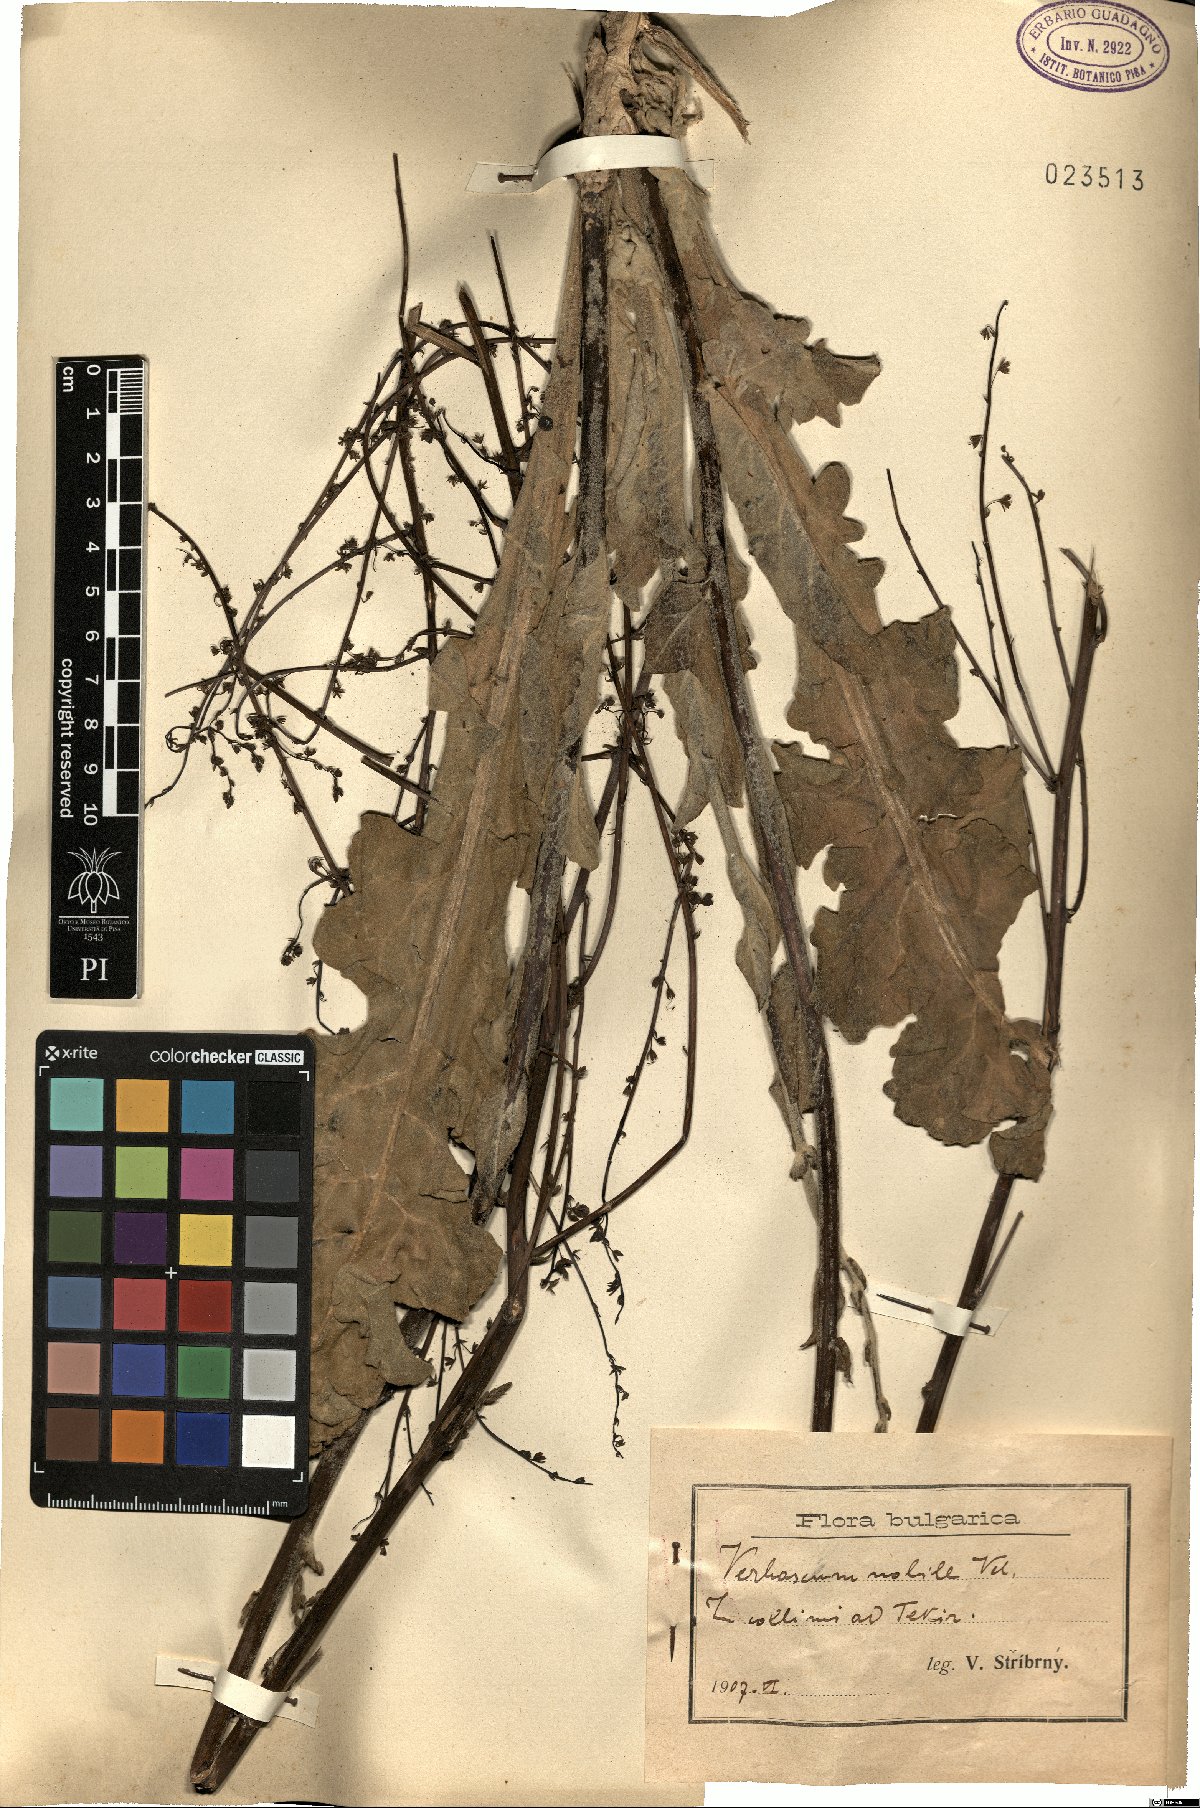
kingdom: Plantae
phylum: Tracheophyta
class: Magnoliopsida
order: Lamiales
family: Scrophulariaceae
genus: Verbascum
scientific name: Verbascum nobile
